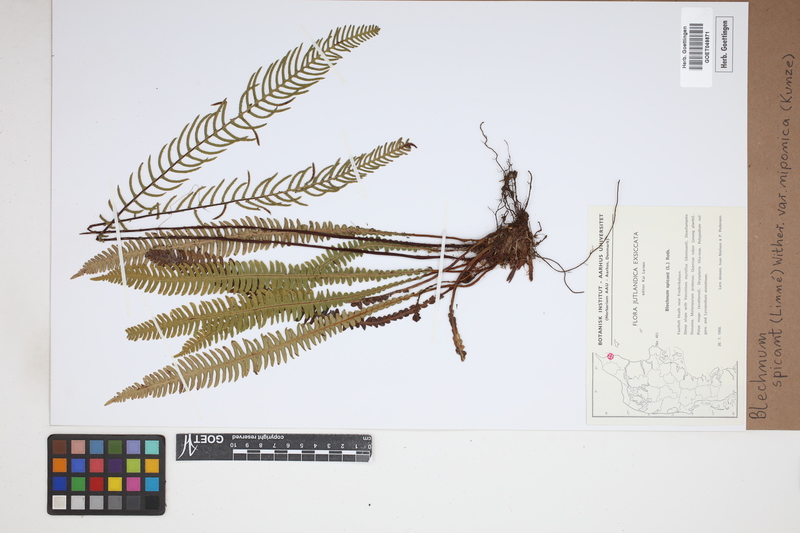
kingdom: Plantae
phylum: Tracheophyta
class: Polypodiopsida
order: Polypodiales
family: Blechnaceae
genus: Struthiopteris
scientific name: Struthiopteris spicant
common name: Deer fern
